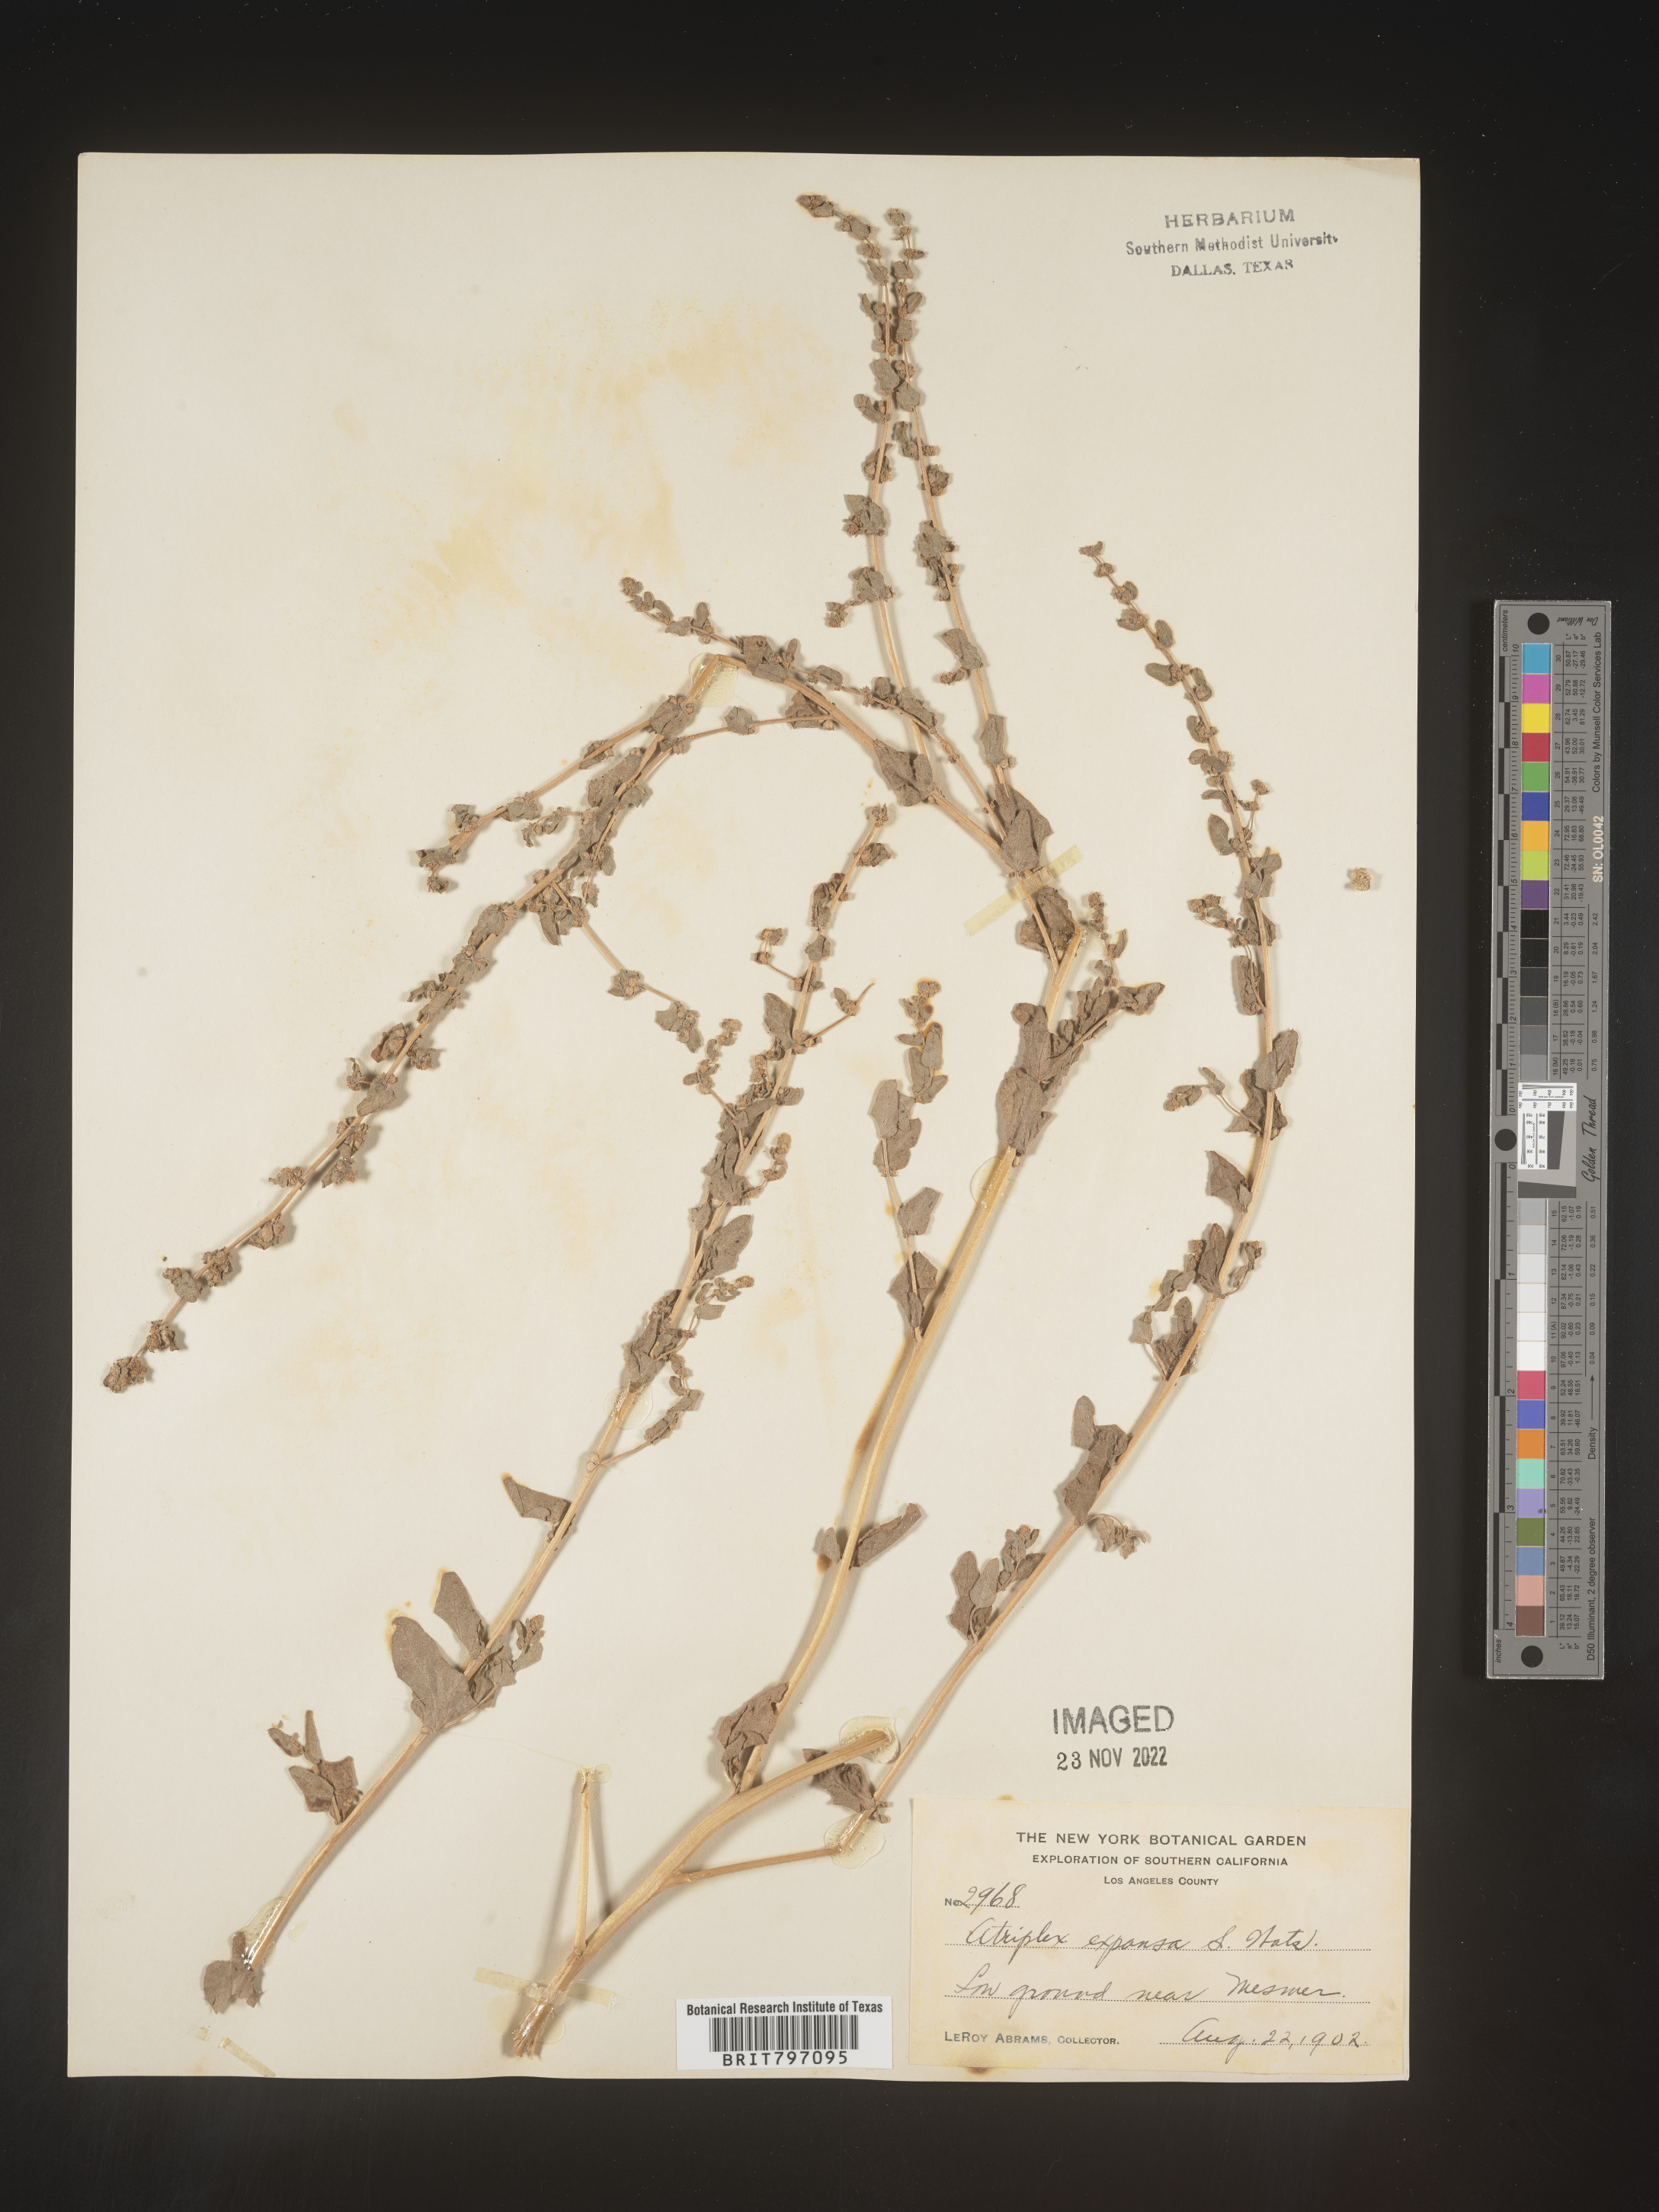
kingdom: Plantae
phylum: Tracheophyta
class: Magnoliopsida
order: Caryophyllales
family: Amaranthaceae
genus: Atriplex
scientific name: Atriplex
